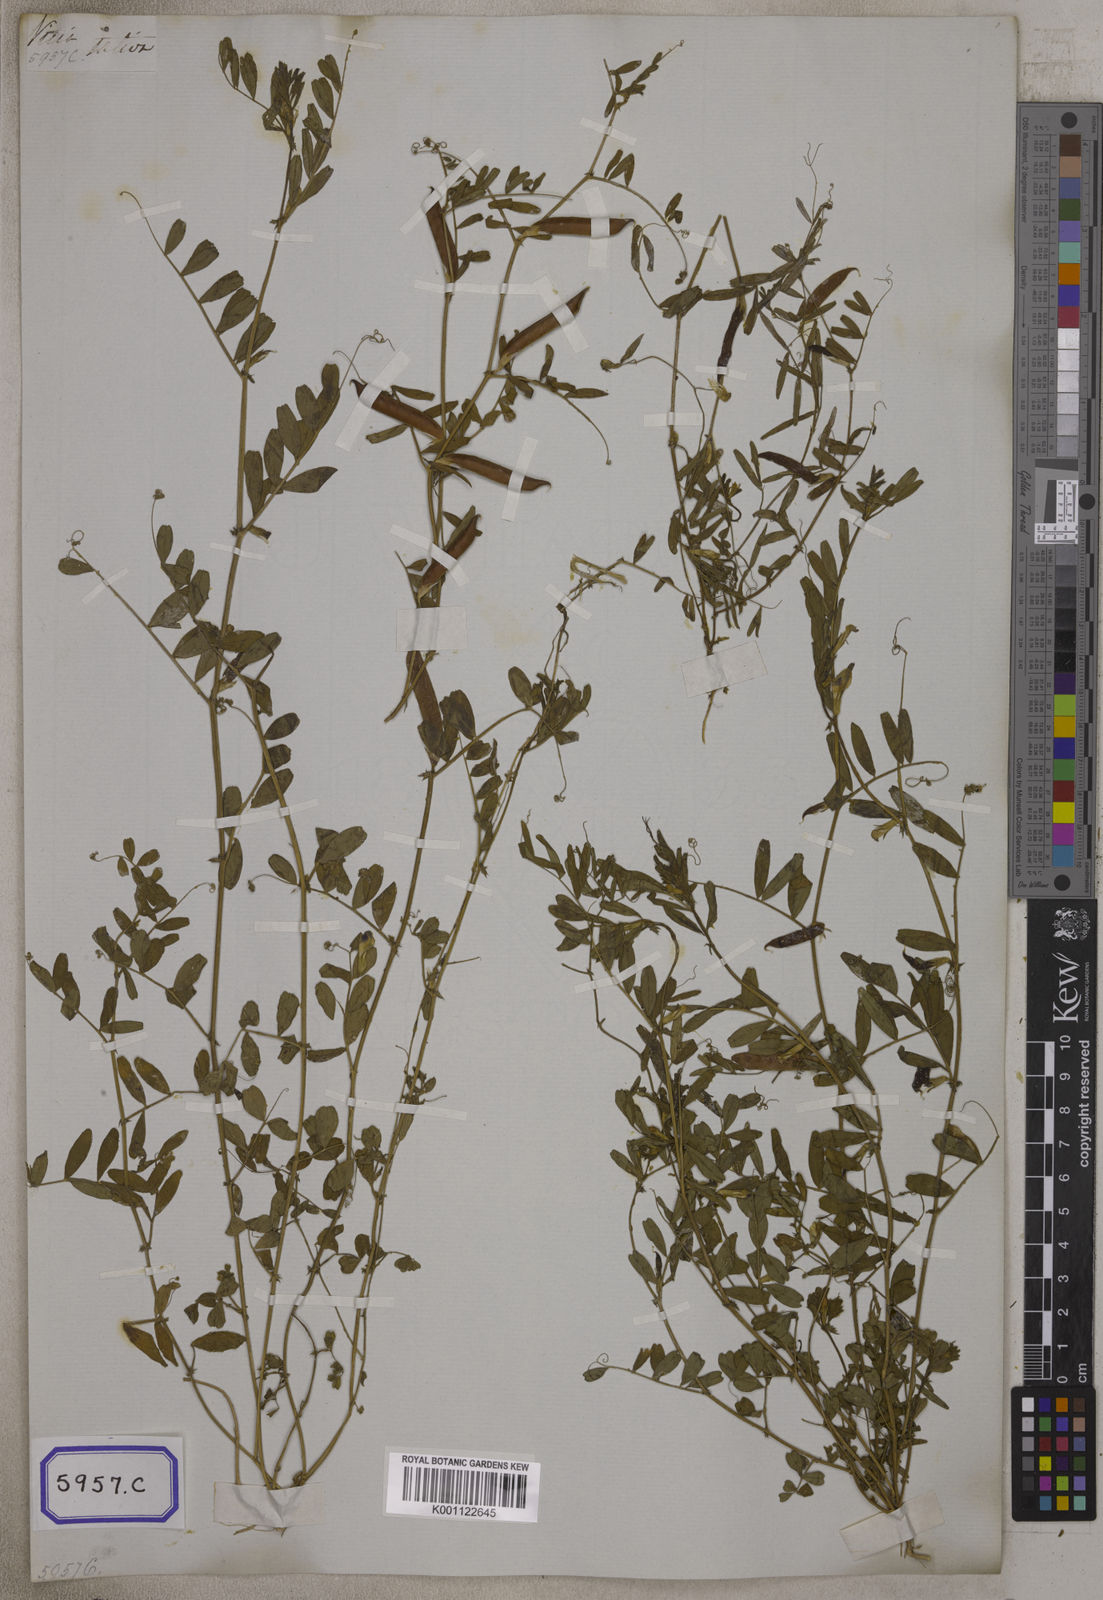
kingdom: Plantae
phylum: Tracheophyta
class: Magnoliopsida
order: Fabales
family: Fabaceae
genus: Vicia
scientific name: Vicia sativa
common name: Garden vetch
